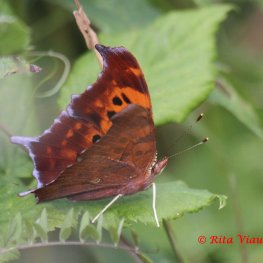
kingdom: Animalia
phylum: Arthropoda
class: Insecta
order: Lepidoptera
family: Nymphalidae
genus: Polygonia
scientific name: Polygonia interrogationis
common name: Question Mark
